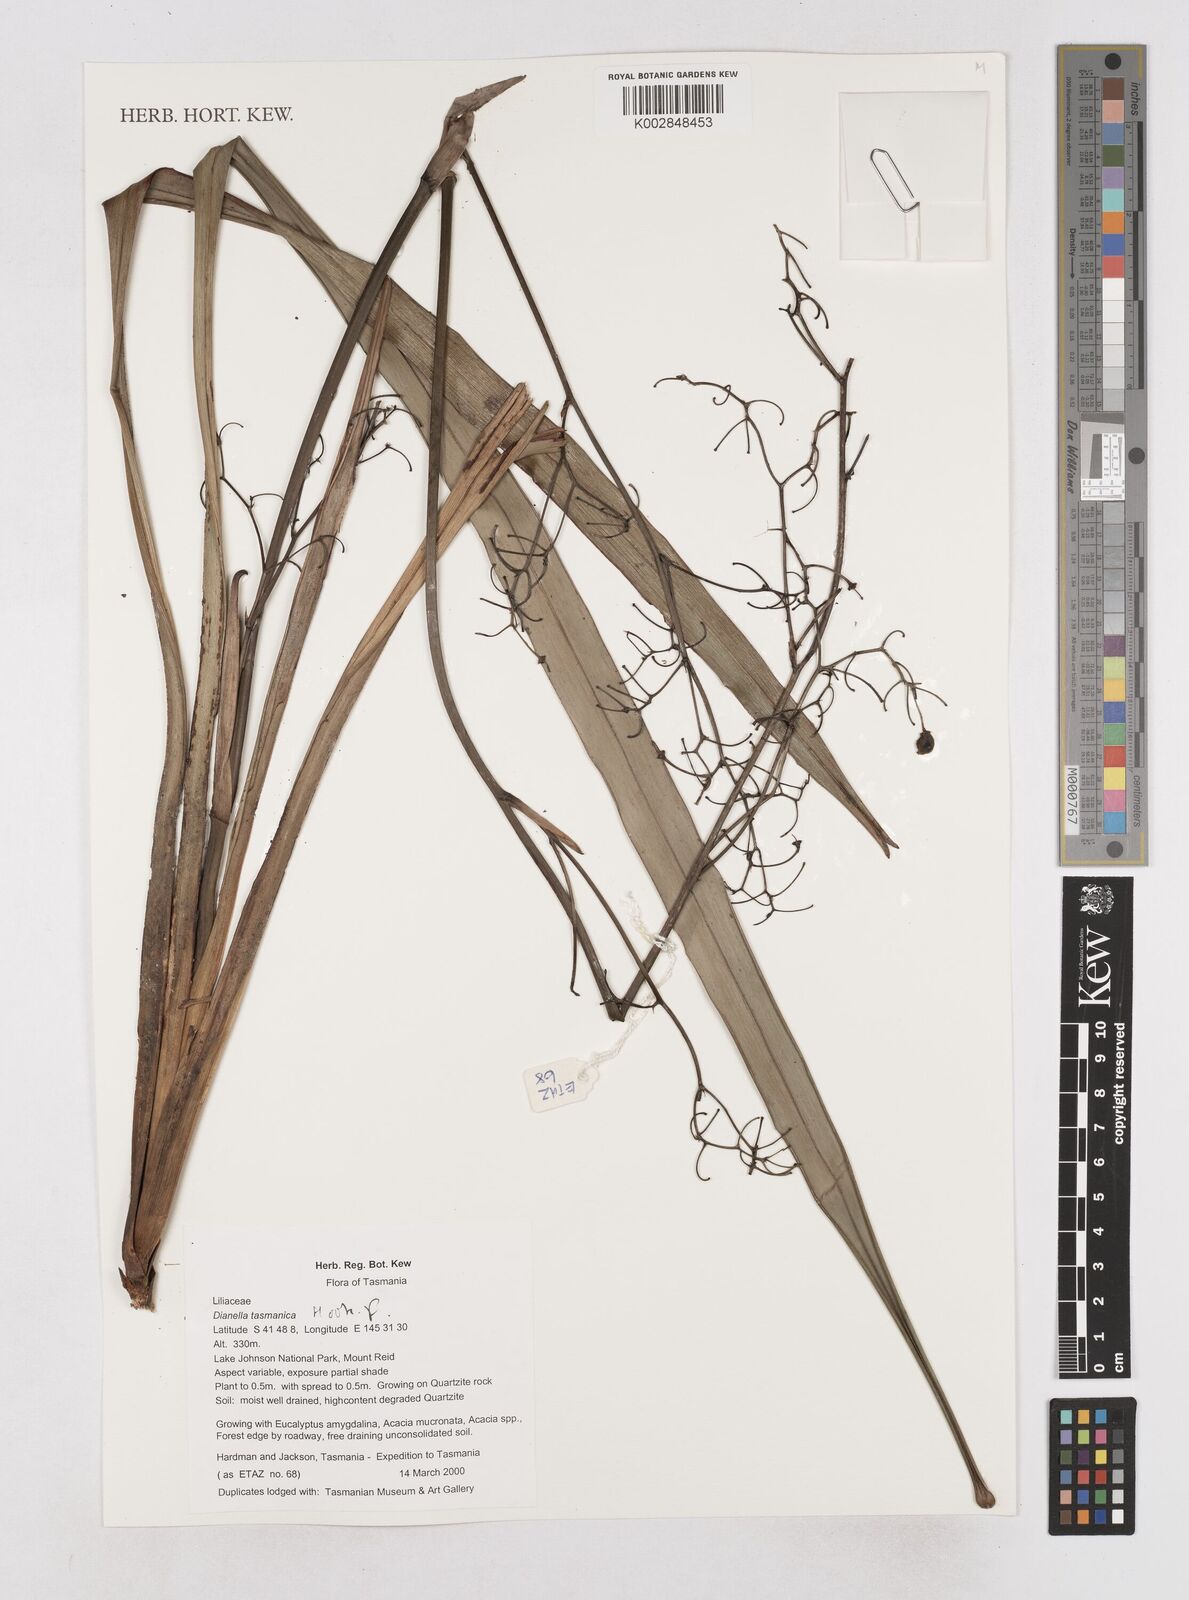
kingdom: Plantae
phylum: Tracheophyta
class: Liliopsida
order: Asparagales
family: Asphodelaceae
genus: Dianella
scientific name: Dianella tasmanica
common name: Tasman flax-lily
